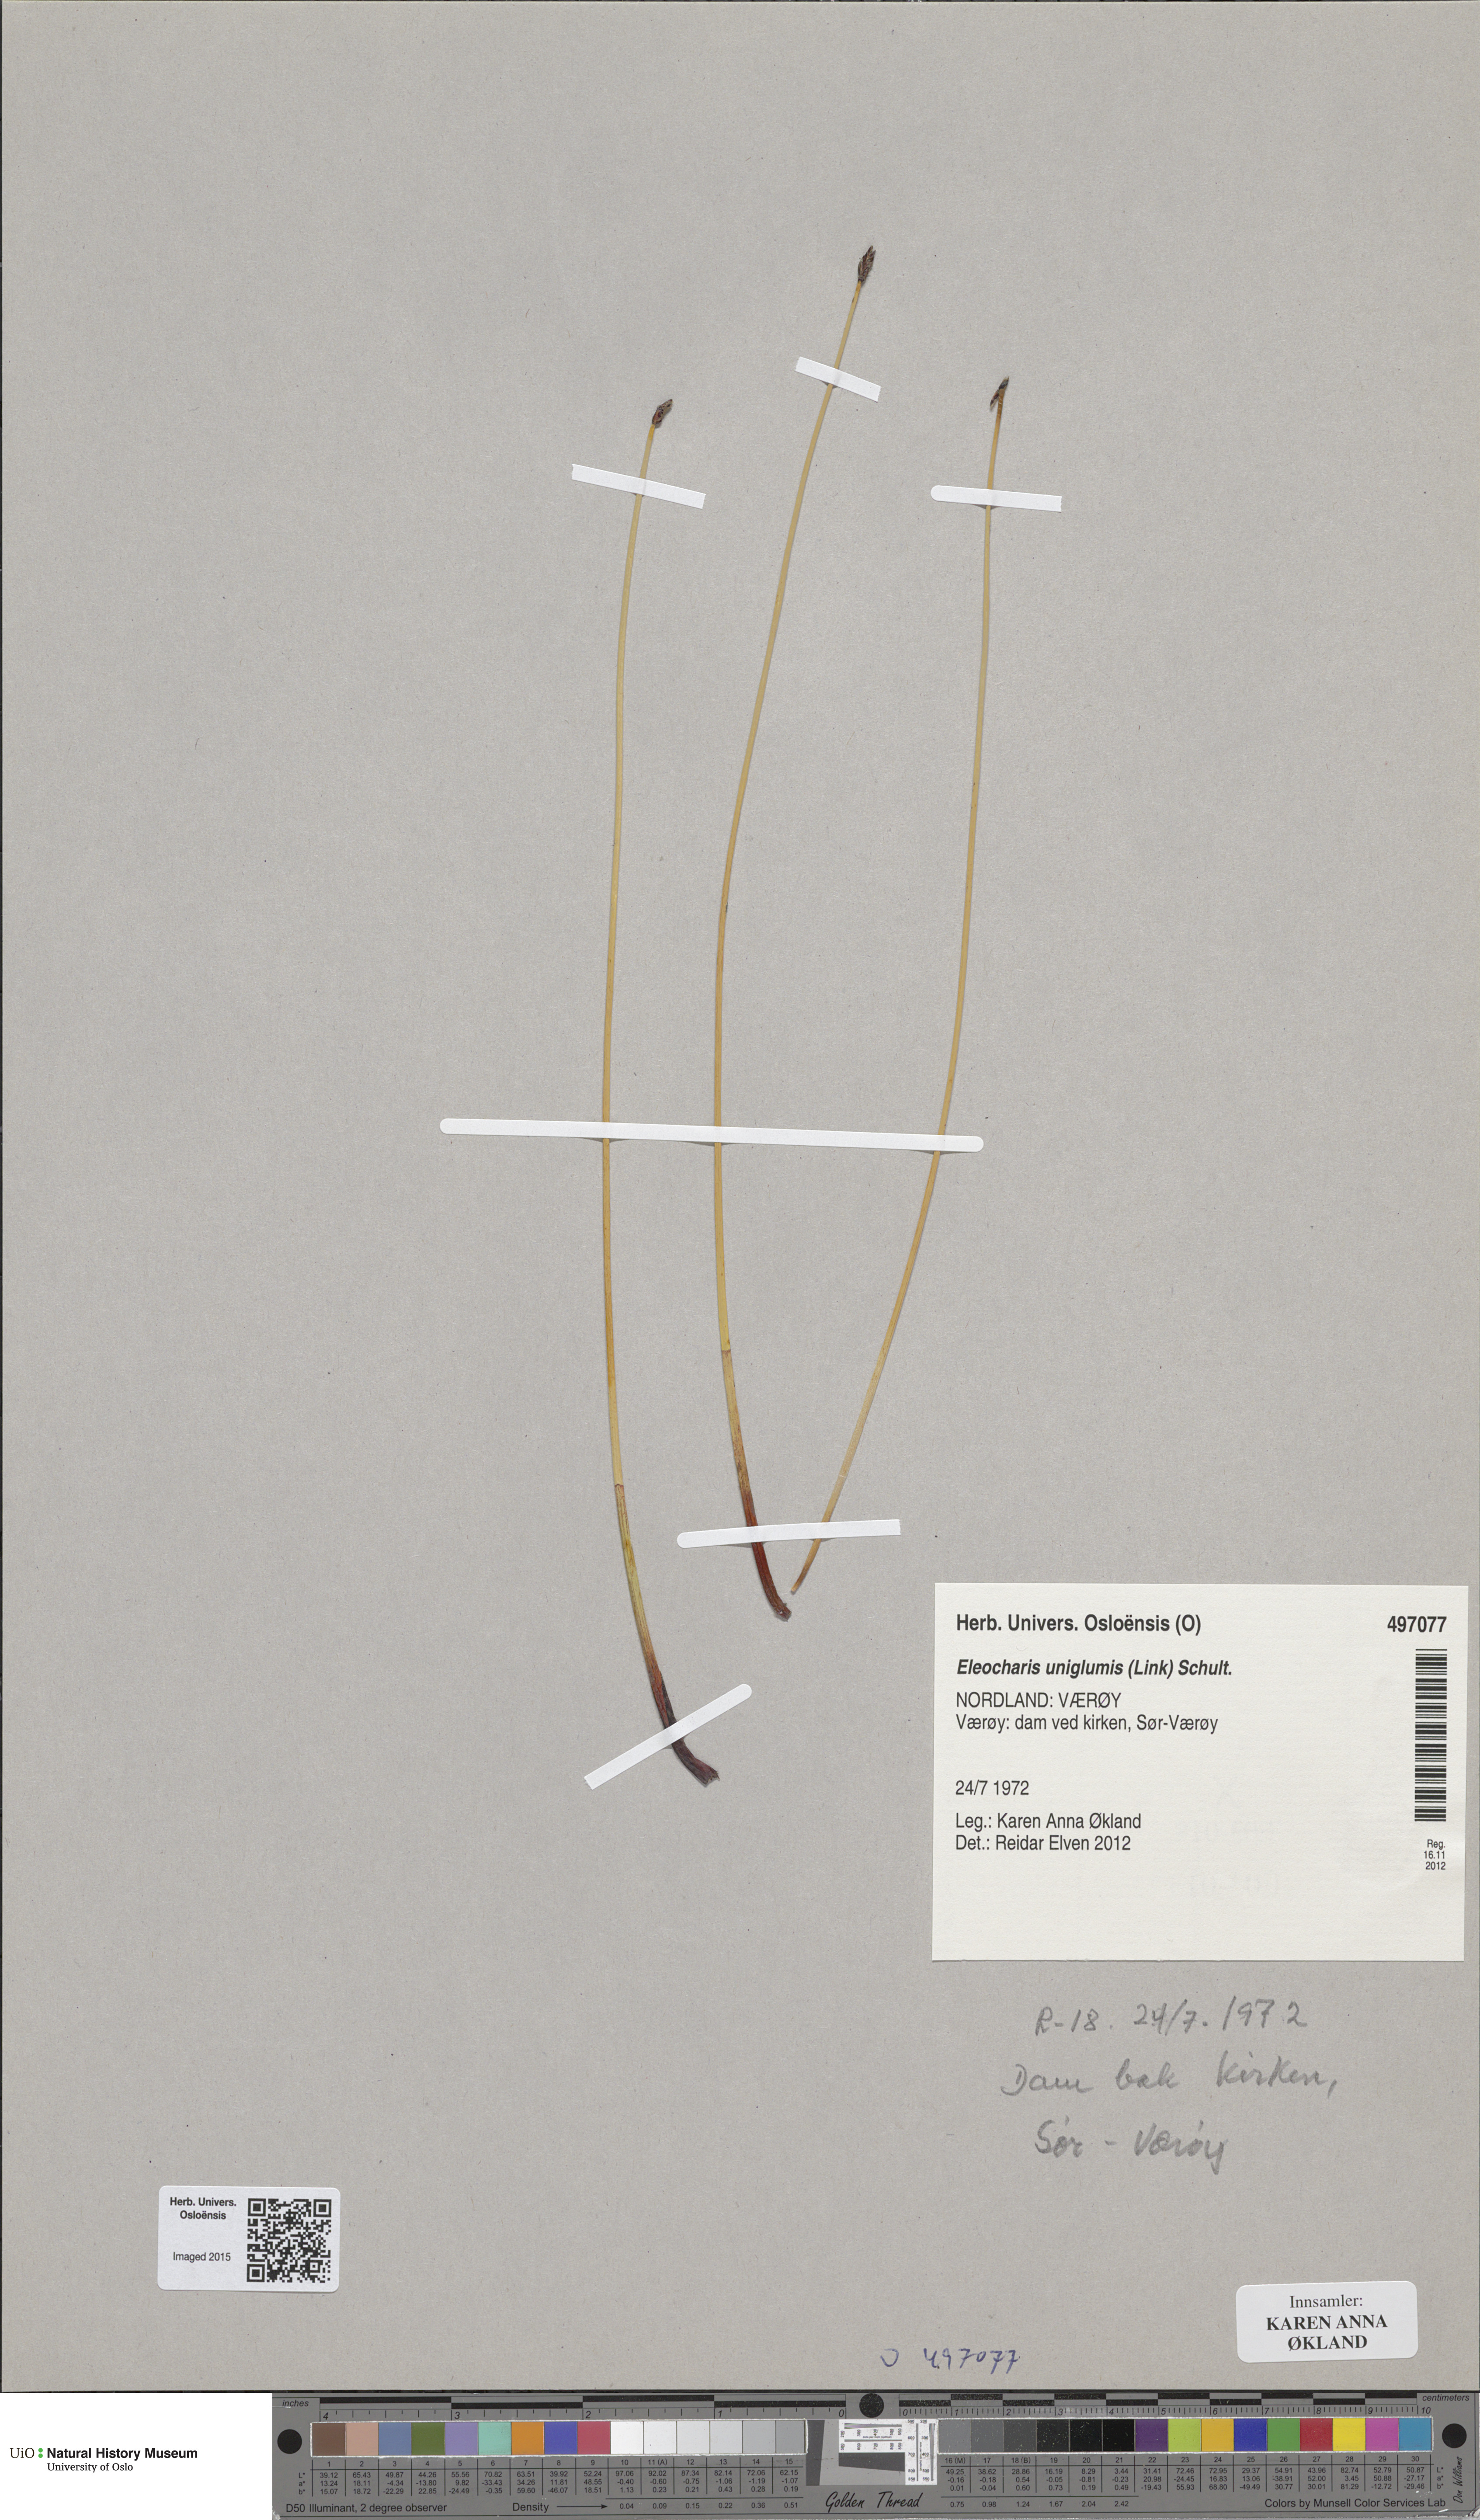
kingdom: Plantae
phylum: Tracheophyta
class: Liliopsida
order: Poales
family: Cyperaceae
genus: Eleocharis
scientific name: Eleocharis uniglumis
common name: Slender spike-rush
